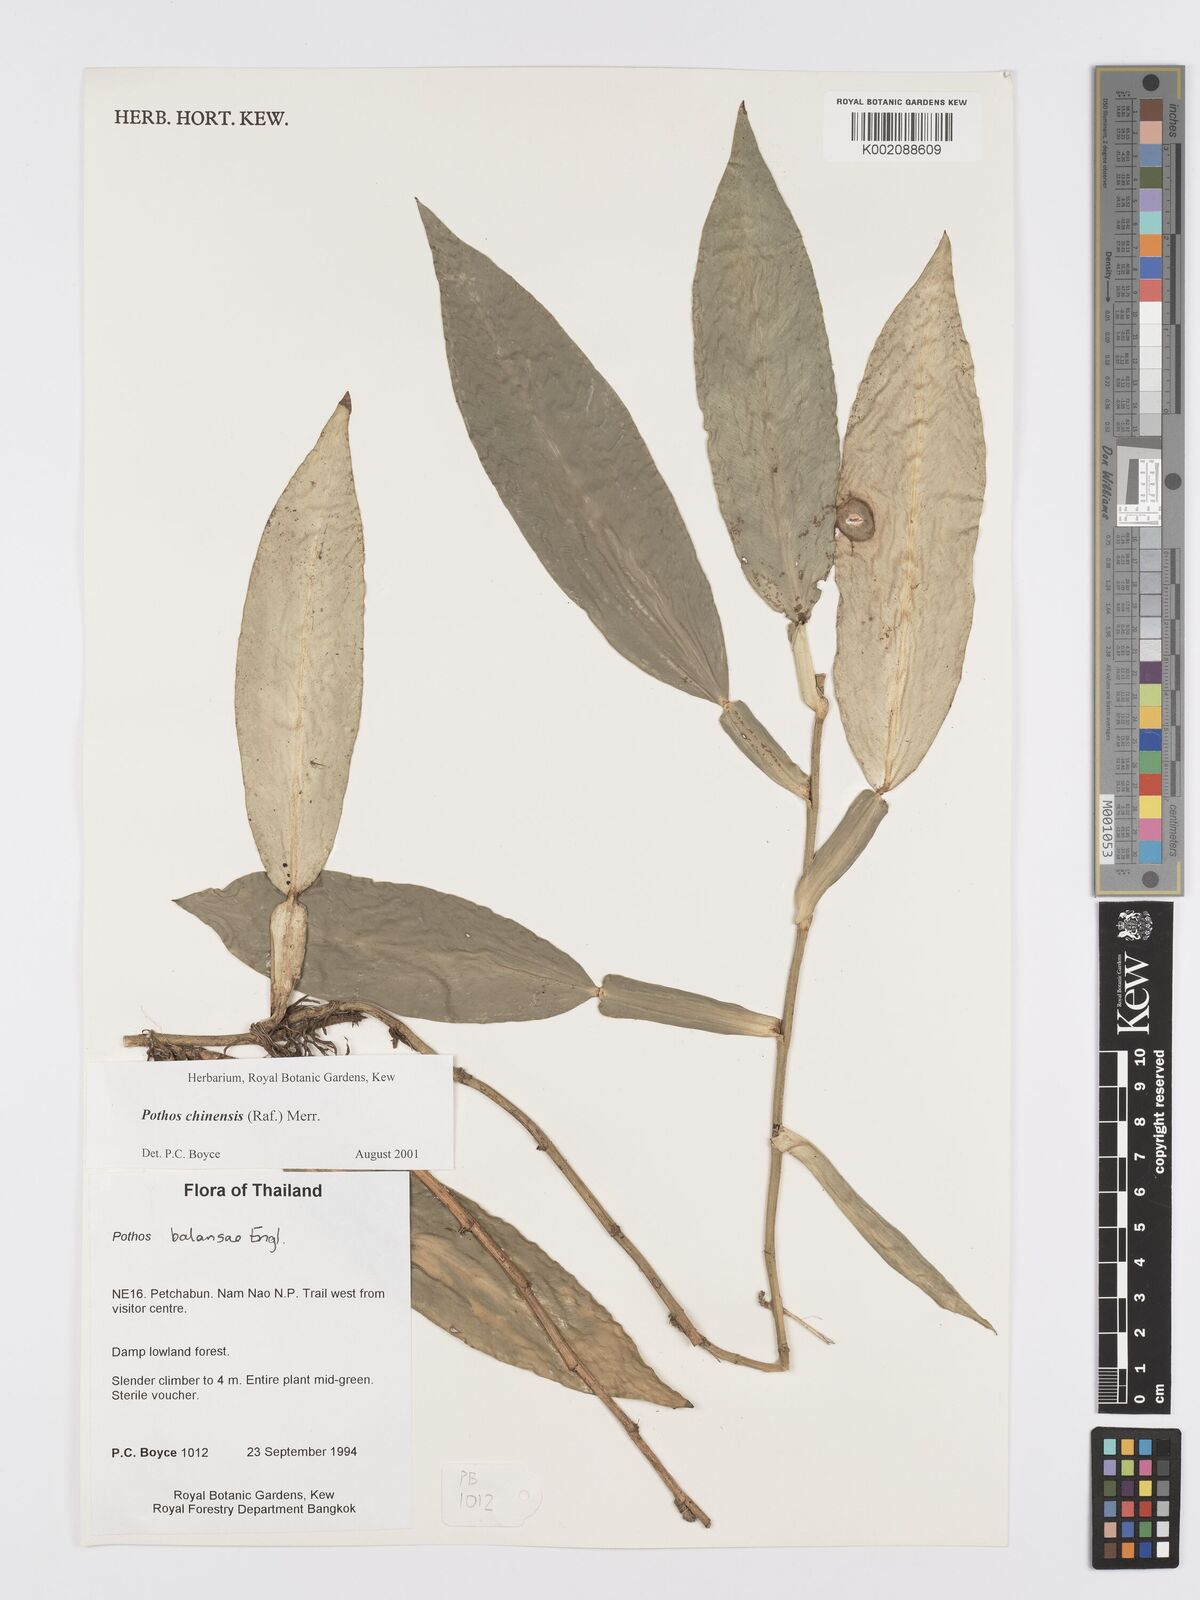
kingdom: Plantae
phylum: Tracheophyta
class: Liliopsida
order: Alismatales
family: Araceae
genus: Pothos
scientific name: Pothos chinensis
